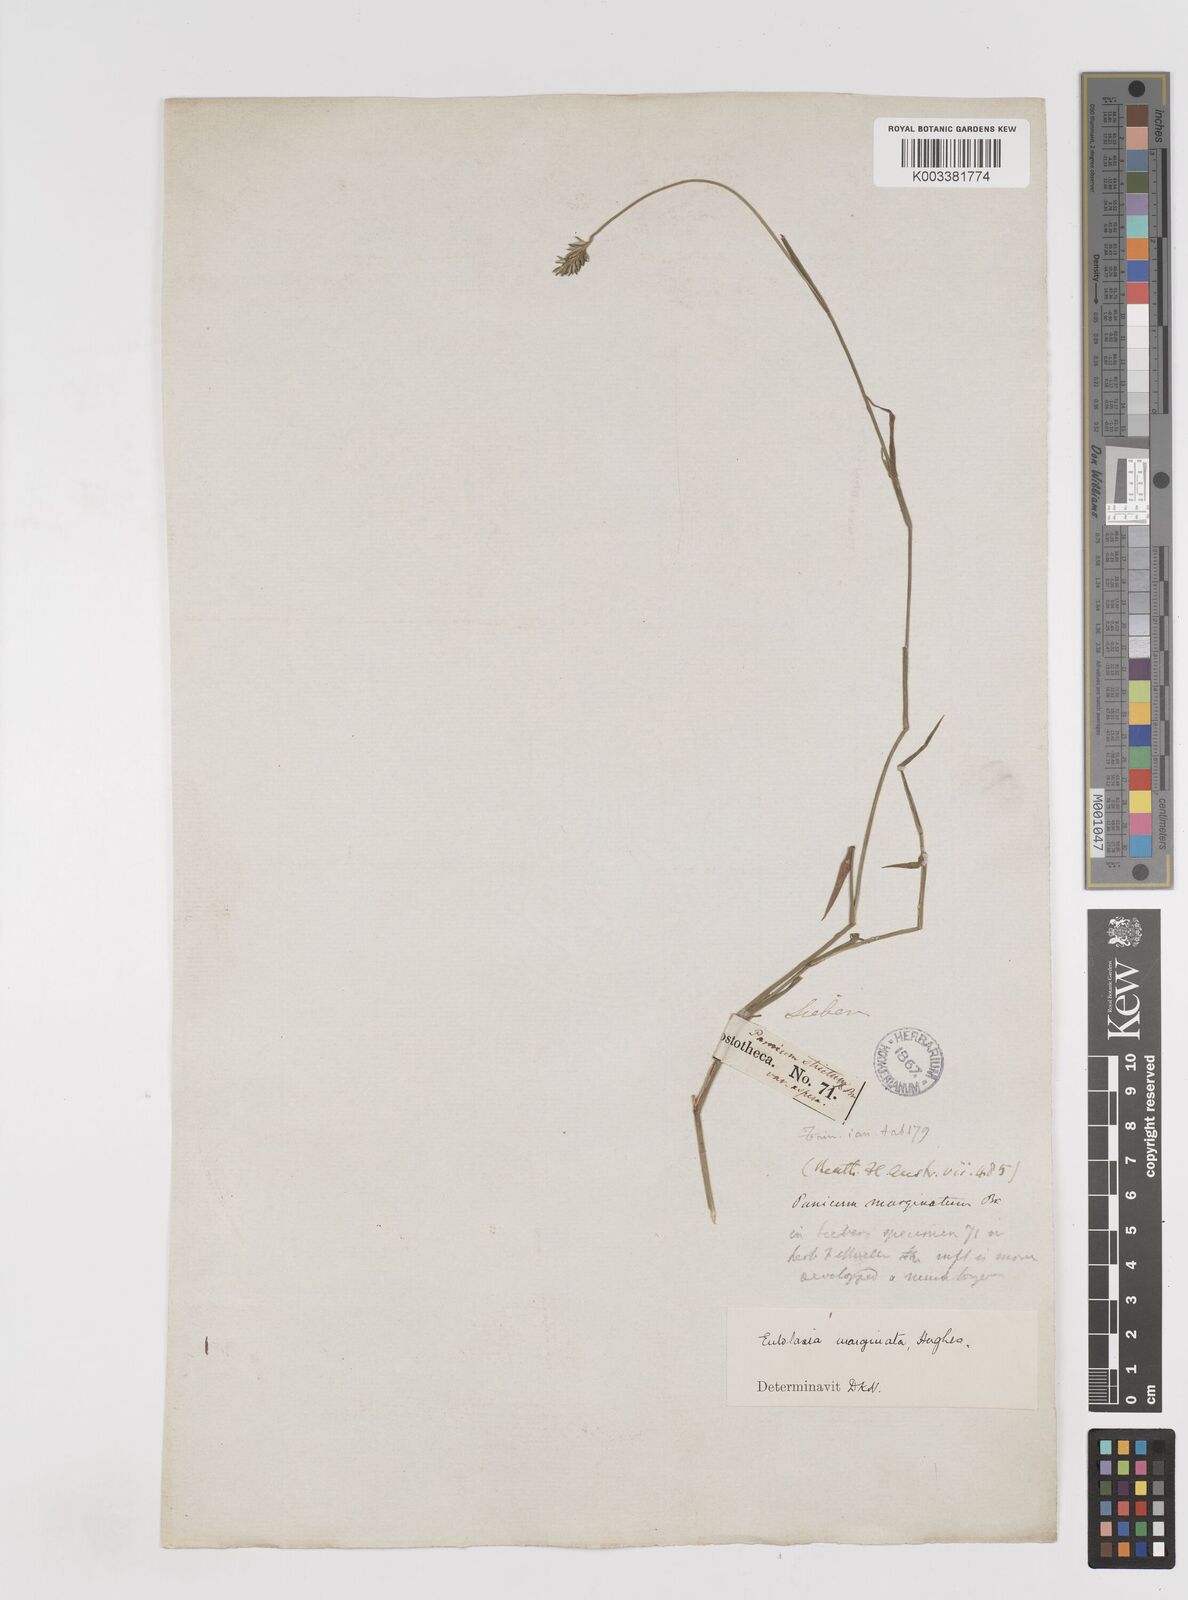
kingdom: Plantae
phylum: Tracheophyta
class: Liliopsida
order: Poales
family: Poaceae
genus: Entolasia
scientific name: Entolasia stricta
